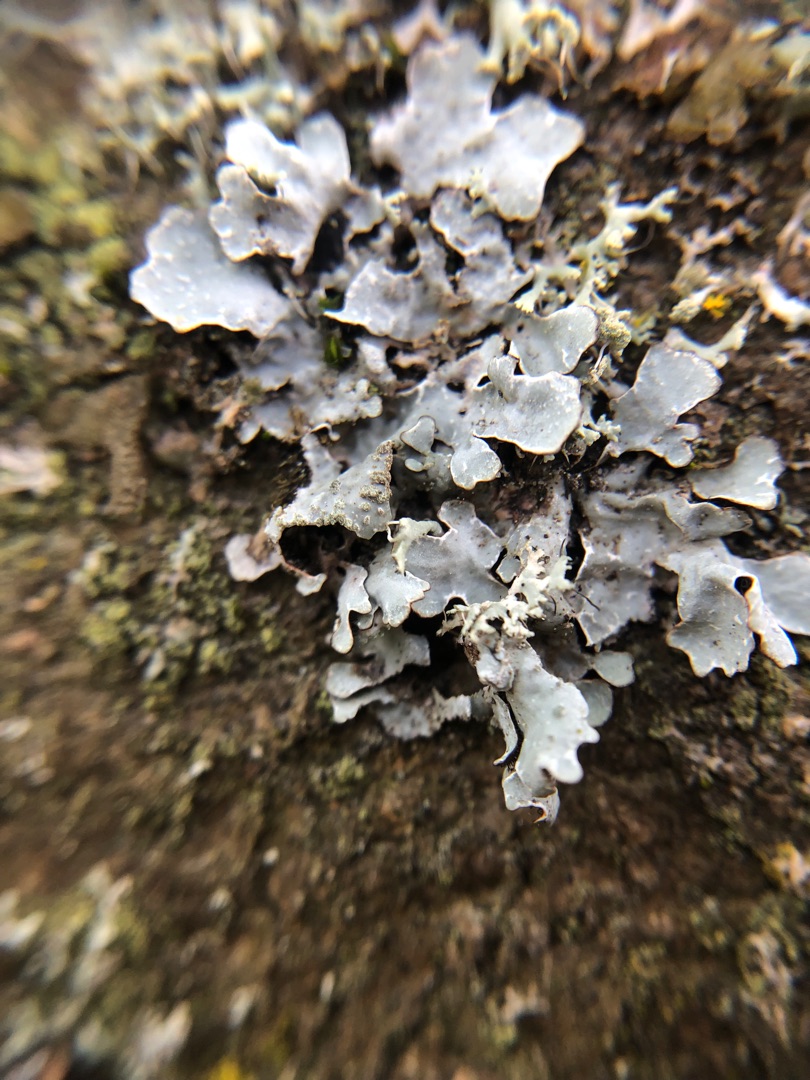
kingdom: Fungi
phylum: Ascomycota
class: Lecanoromycetes
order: Lecanorales
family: Parmeliaceae
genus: Parmelia
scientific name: Parmelia sulcata
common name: Rynket skållav
